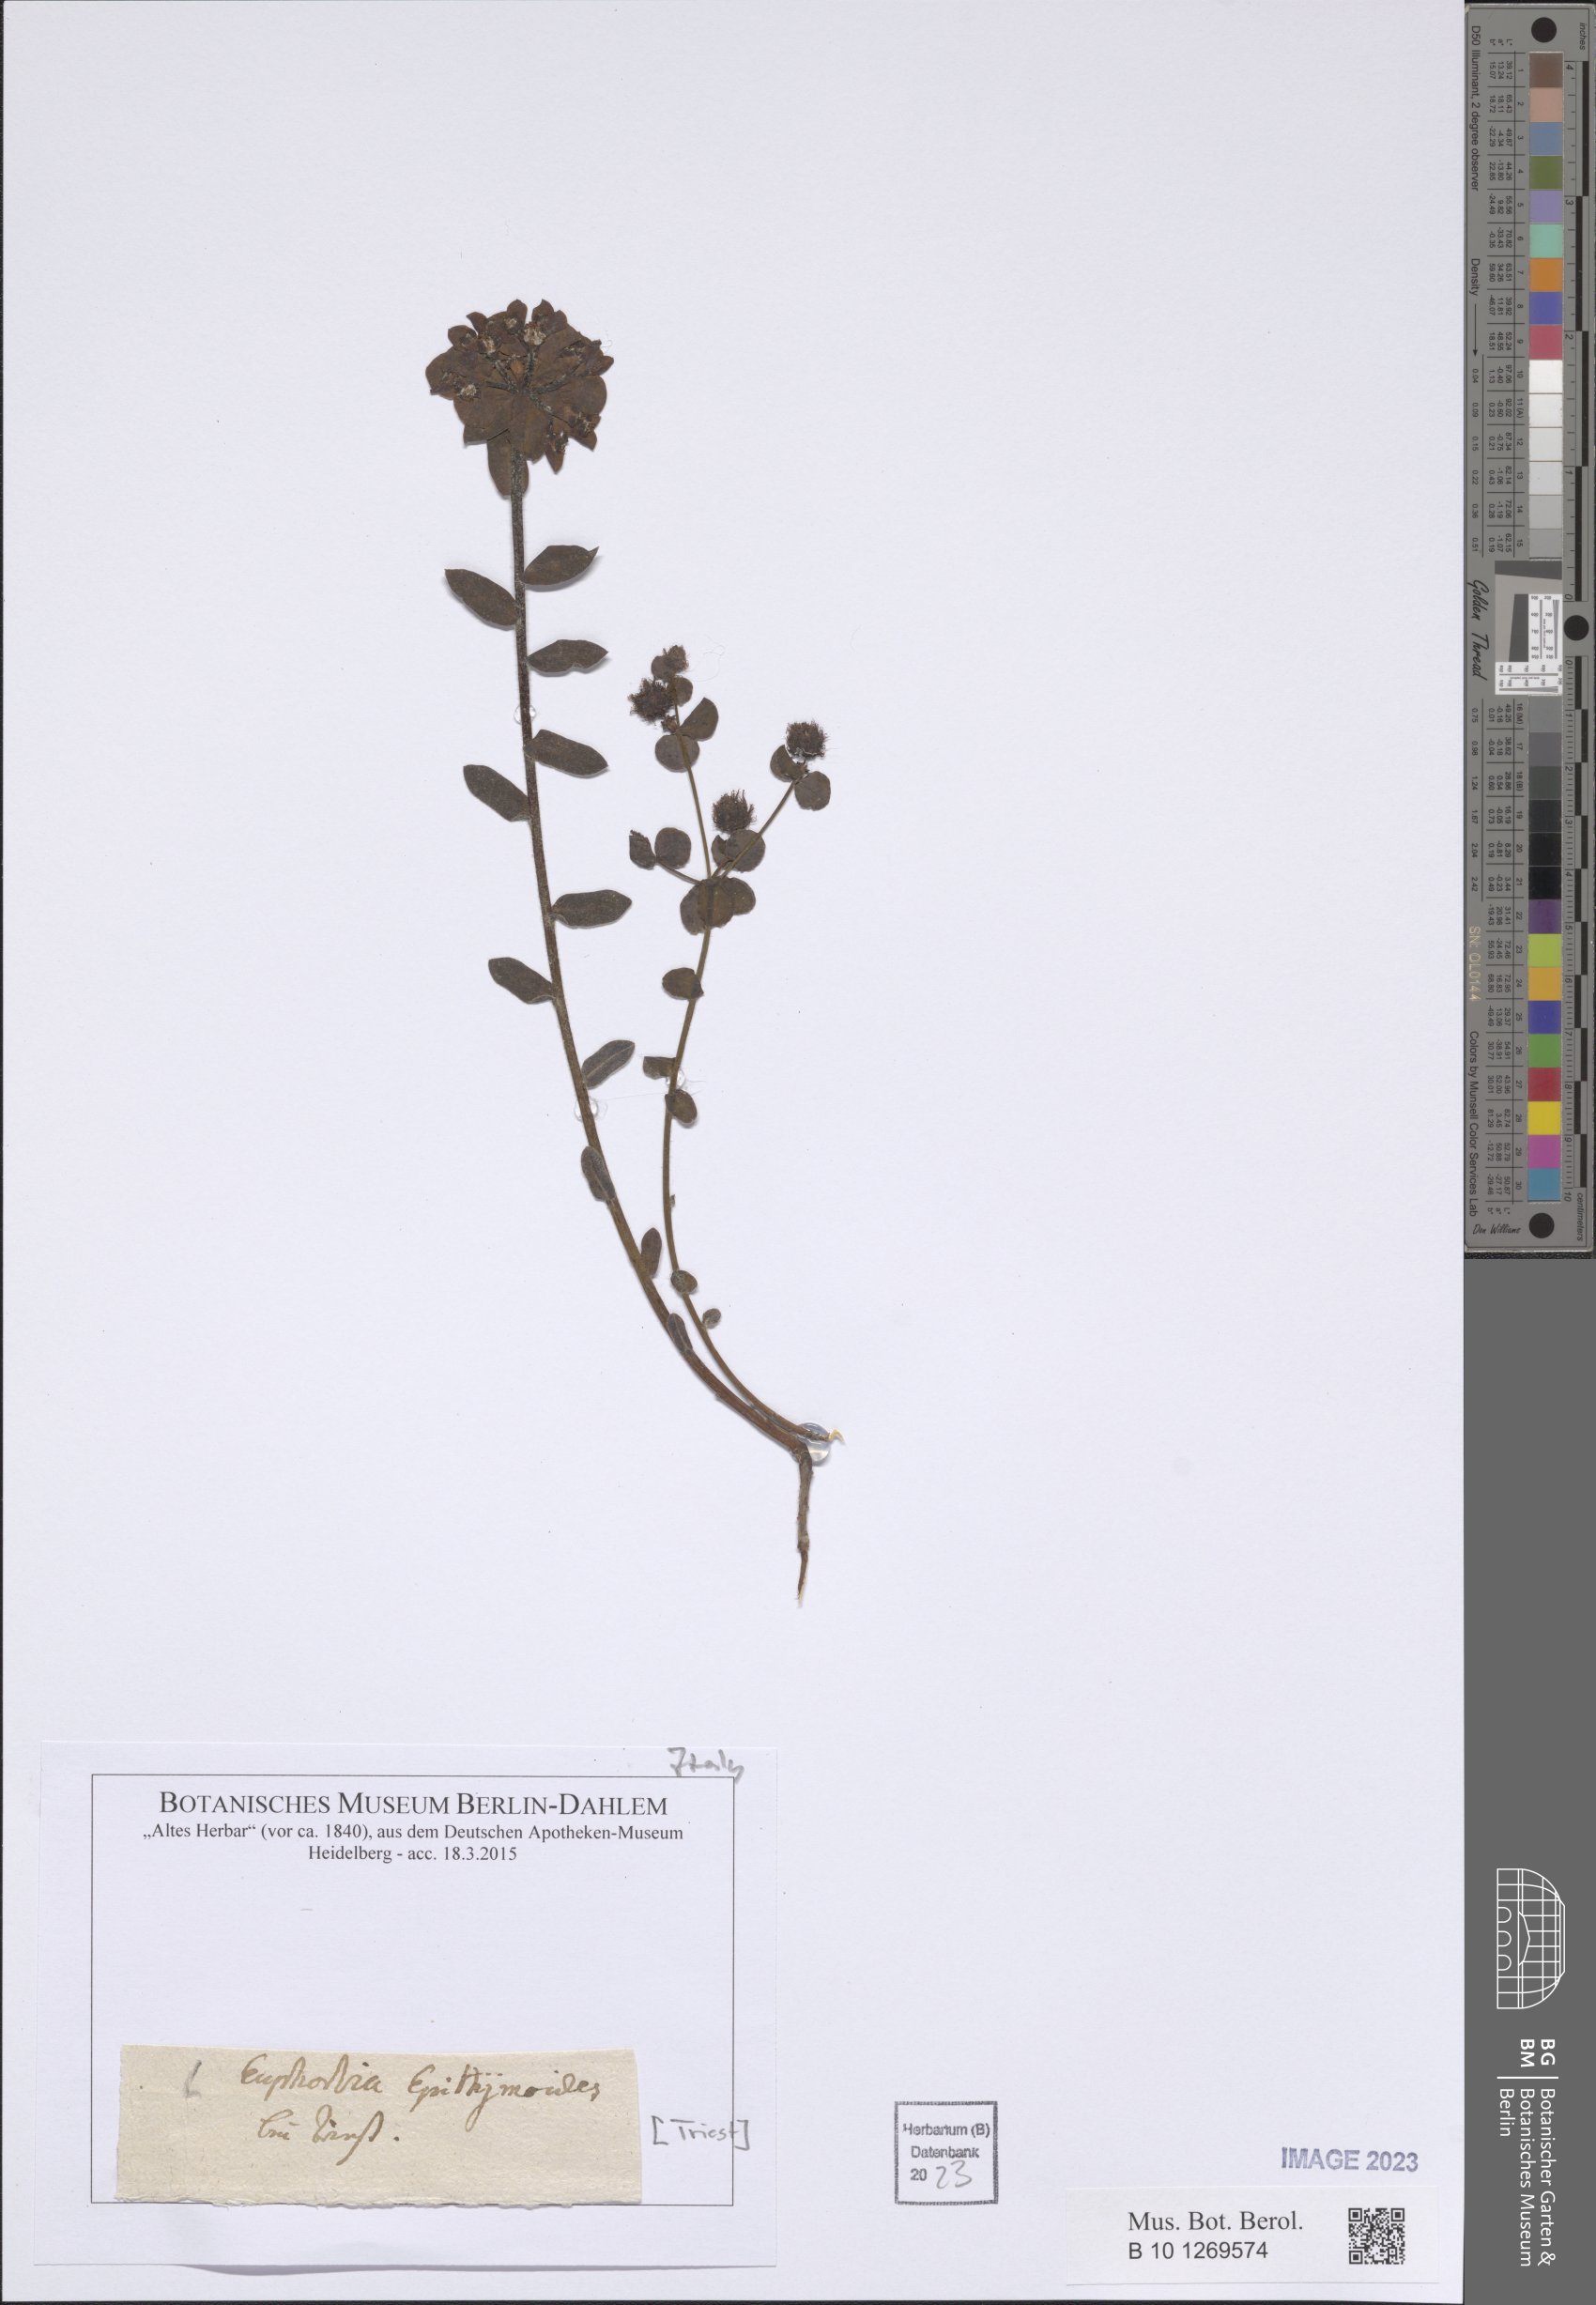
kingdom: Plantae
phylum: Tracheophyta
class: Magnoliopsida
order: Malpighiales
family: Euphorbiaceae
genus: Euphorbia
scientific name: Euphorbia epithymoides
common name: Cushion spurge
